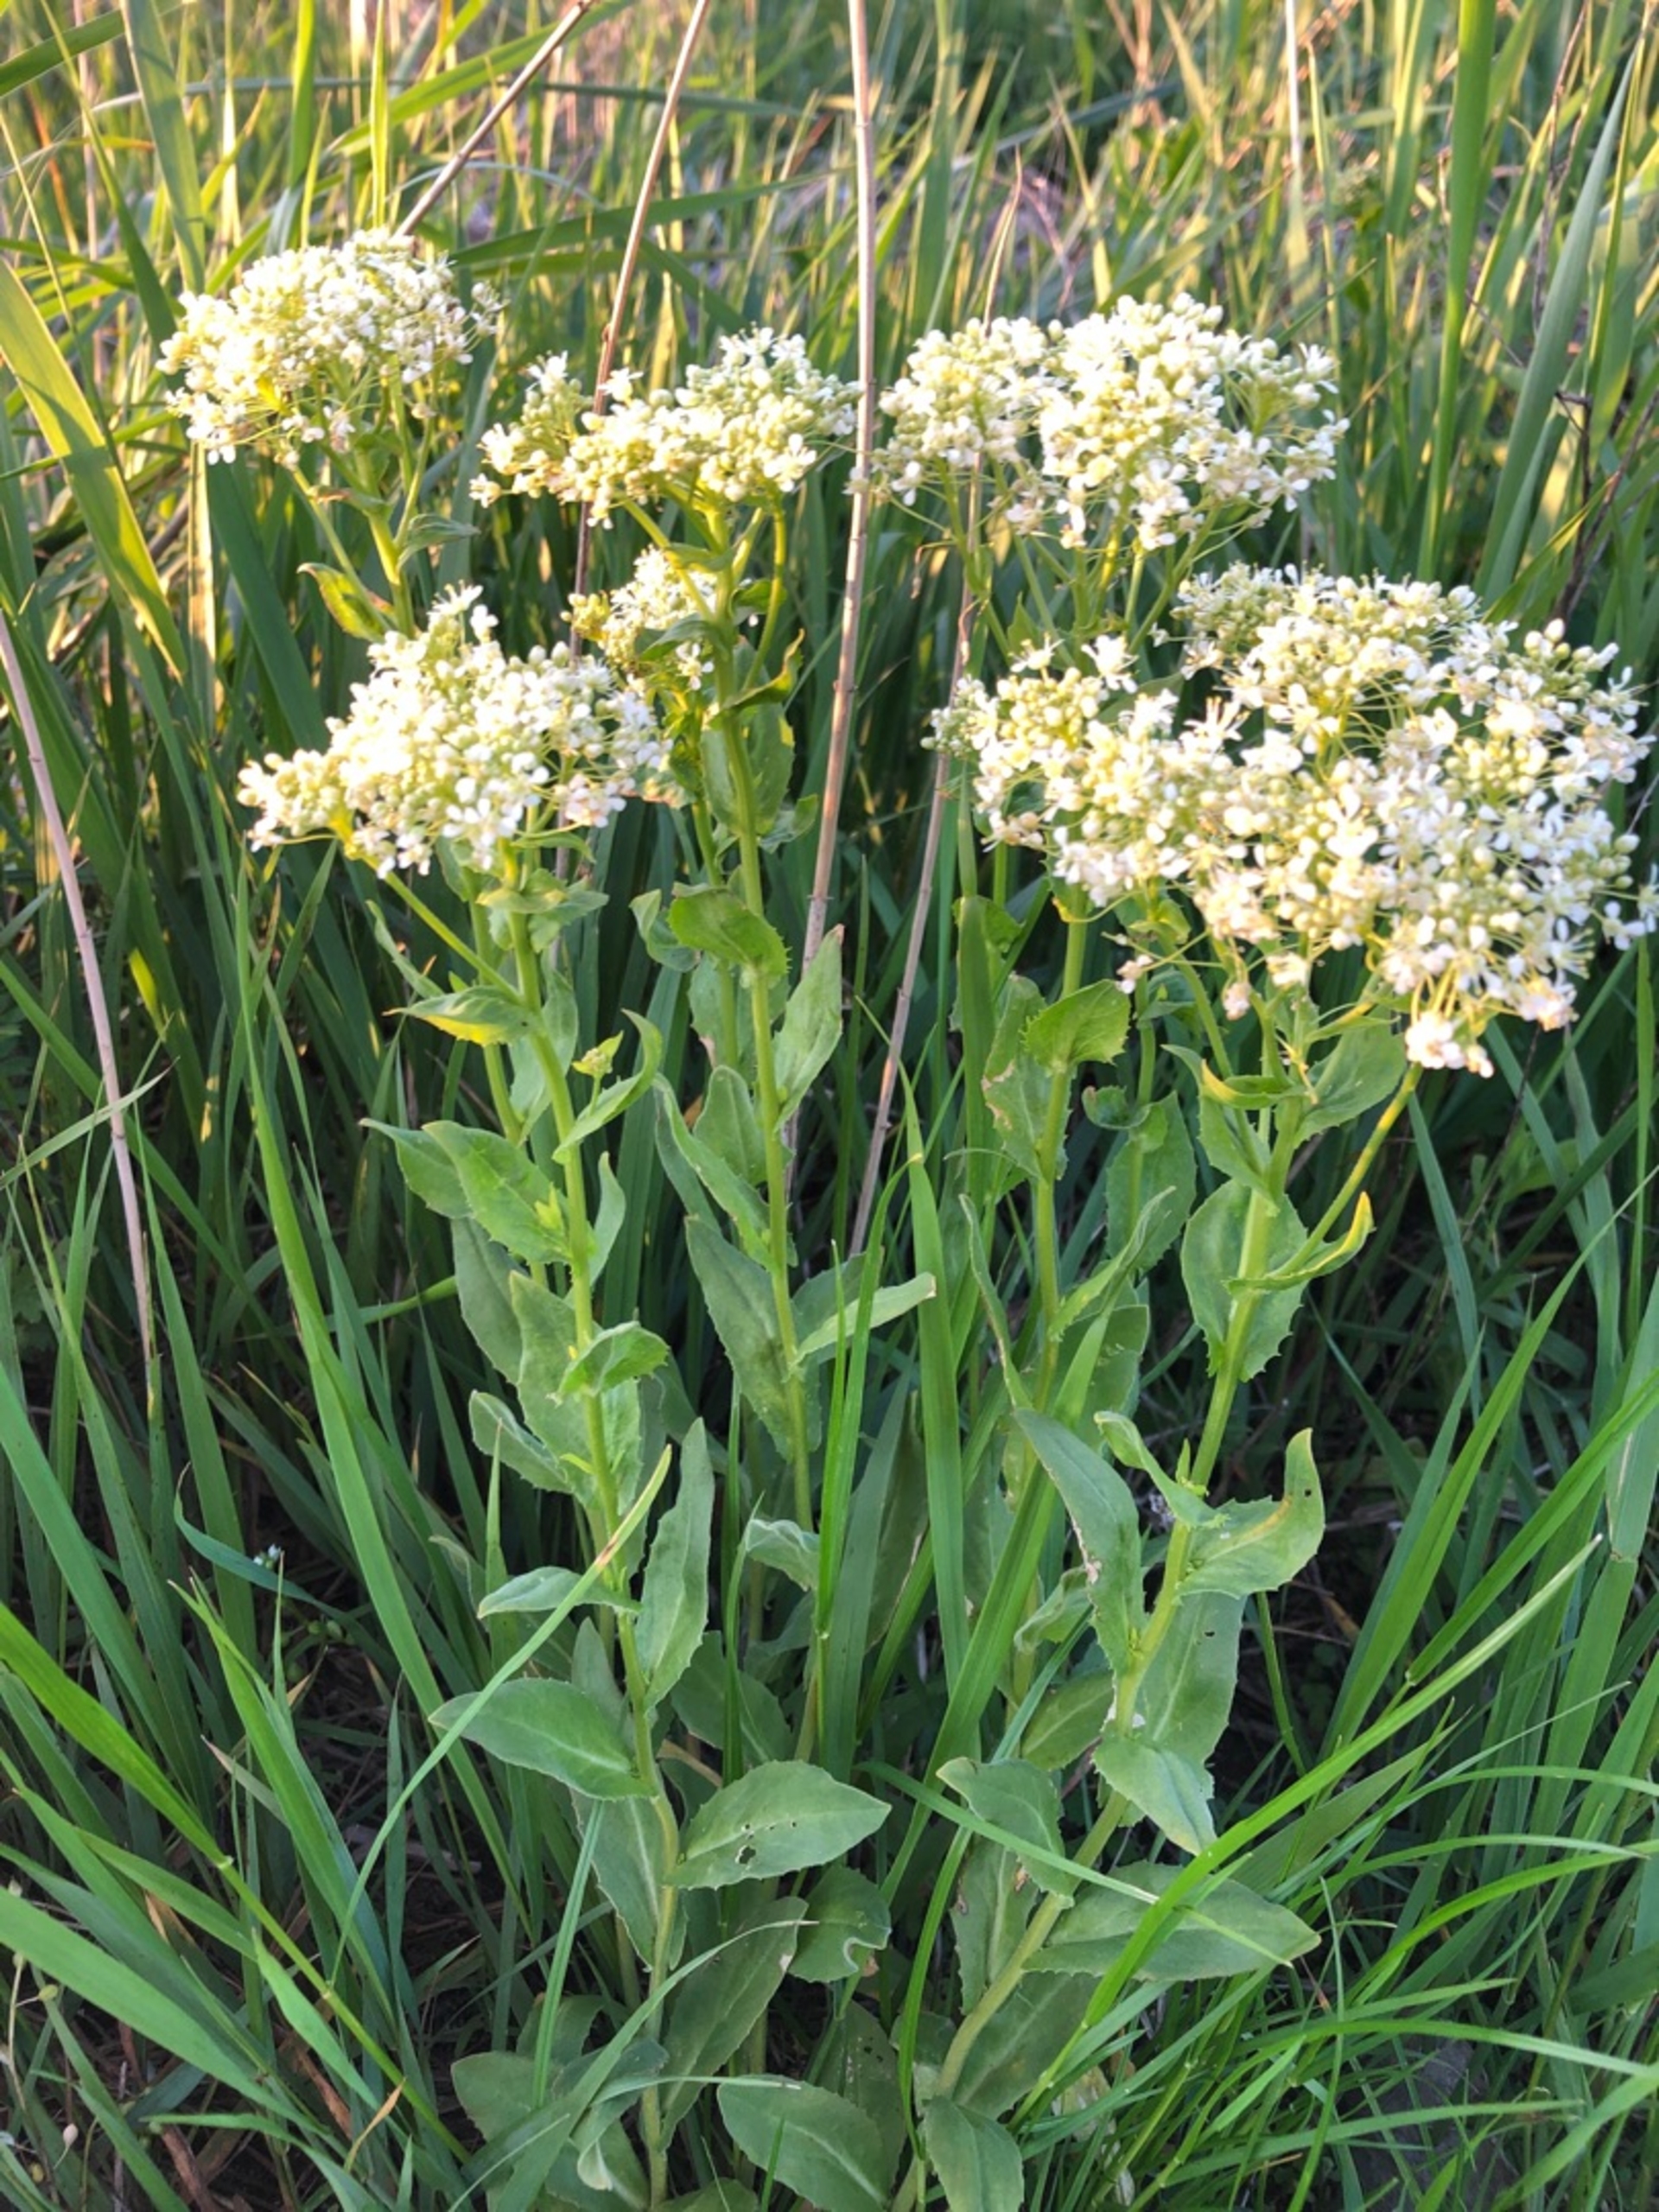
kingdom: Plantae
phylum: Tracheophyta
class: Magnoliopsida
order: Brassicales
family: Brassicaceae
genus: Lepidium
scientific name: Lepidium draba
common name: Hjerte-karse
